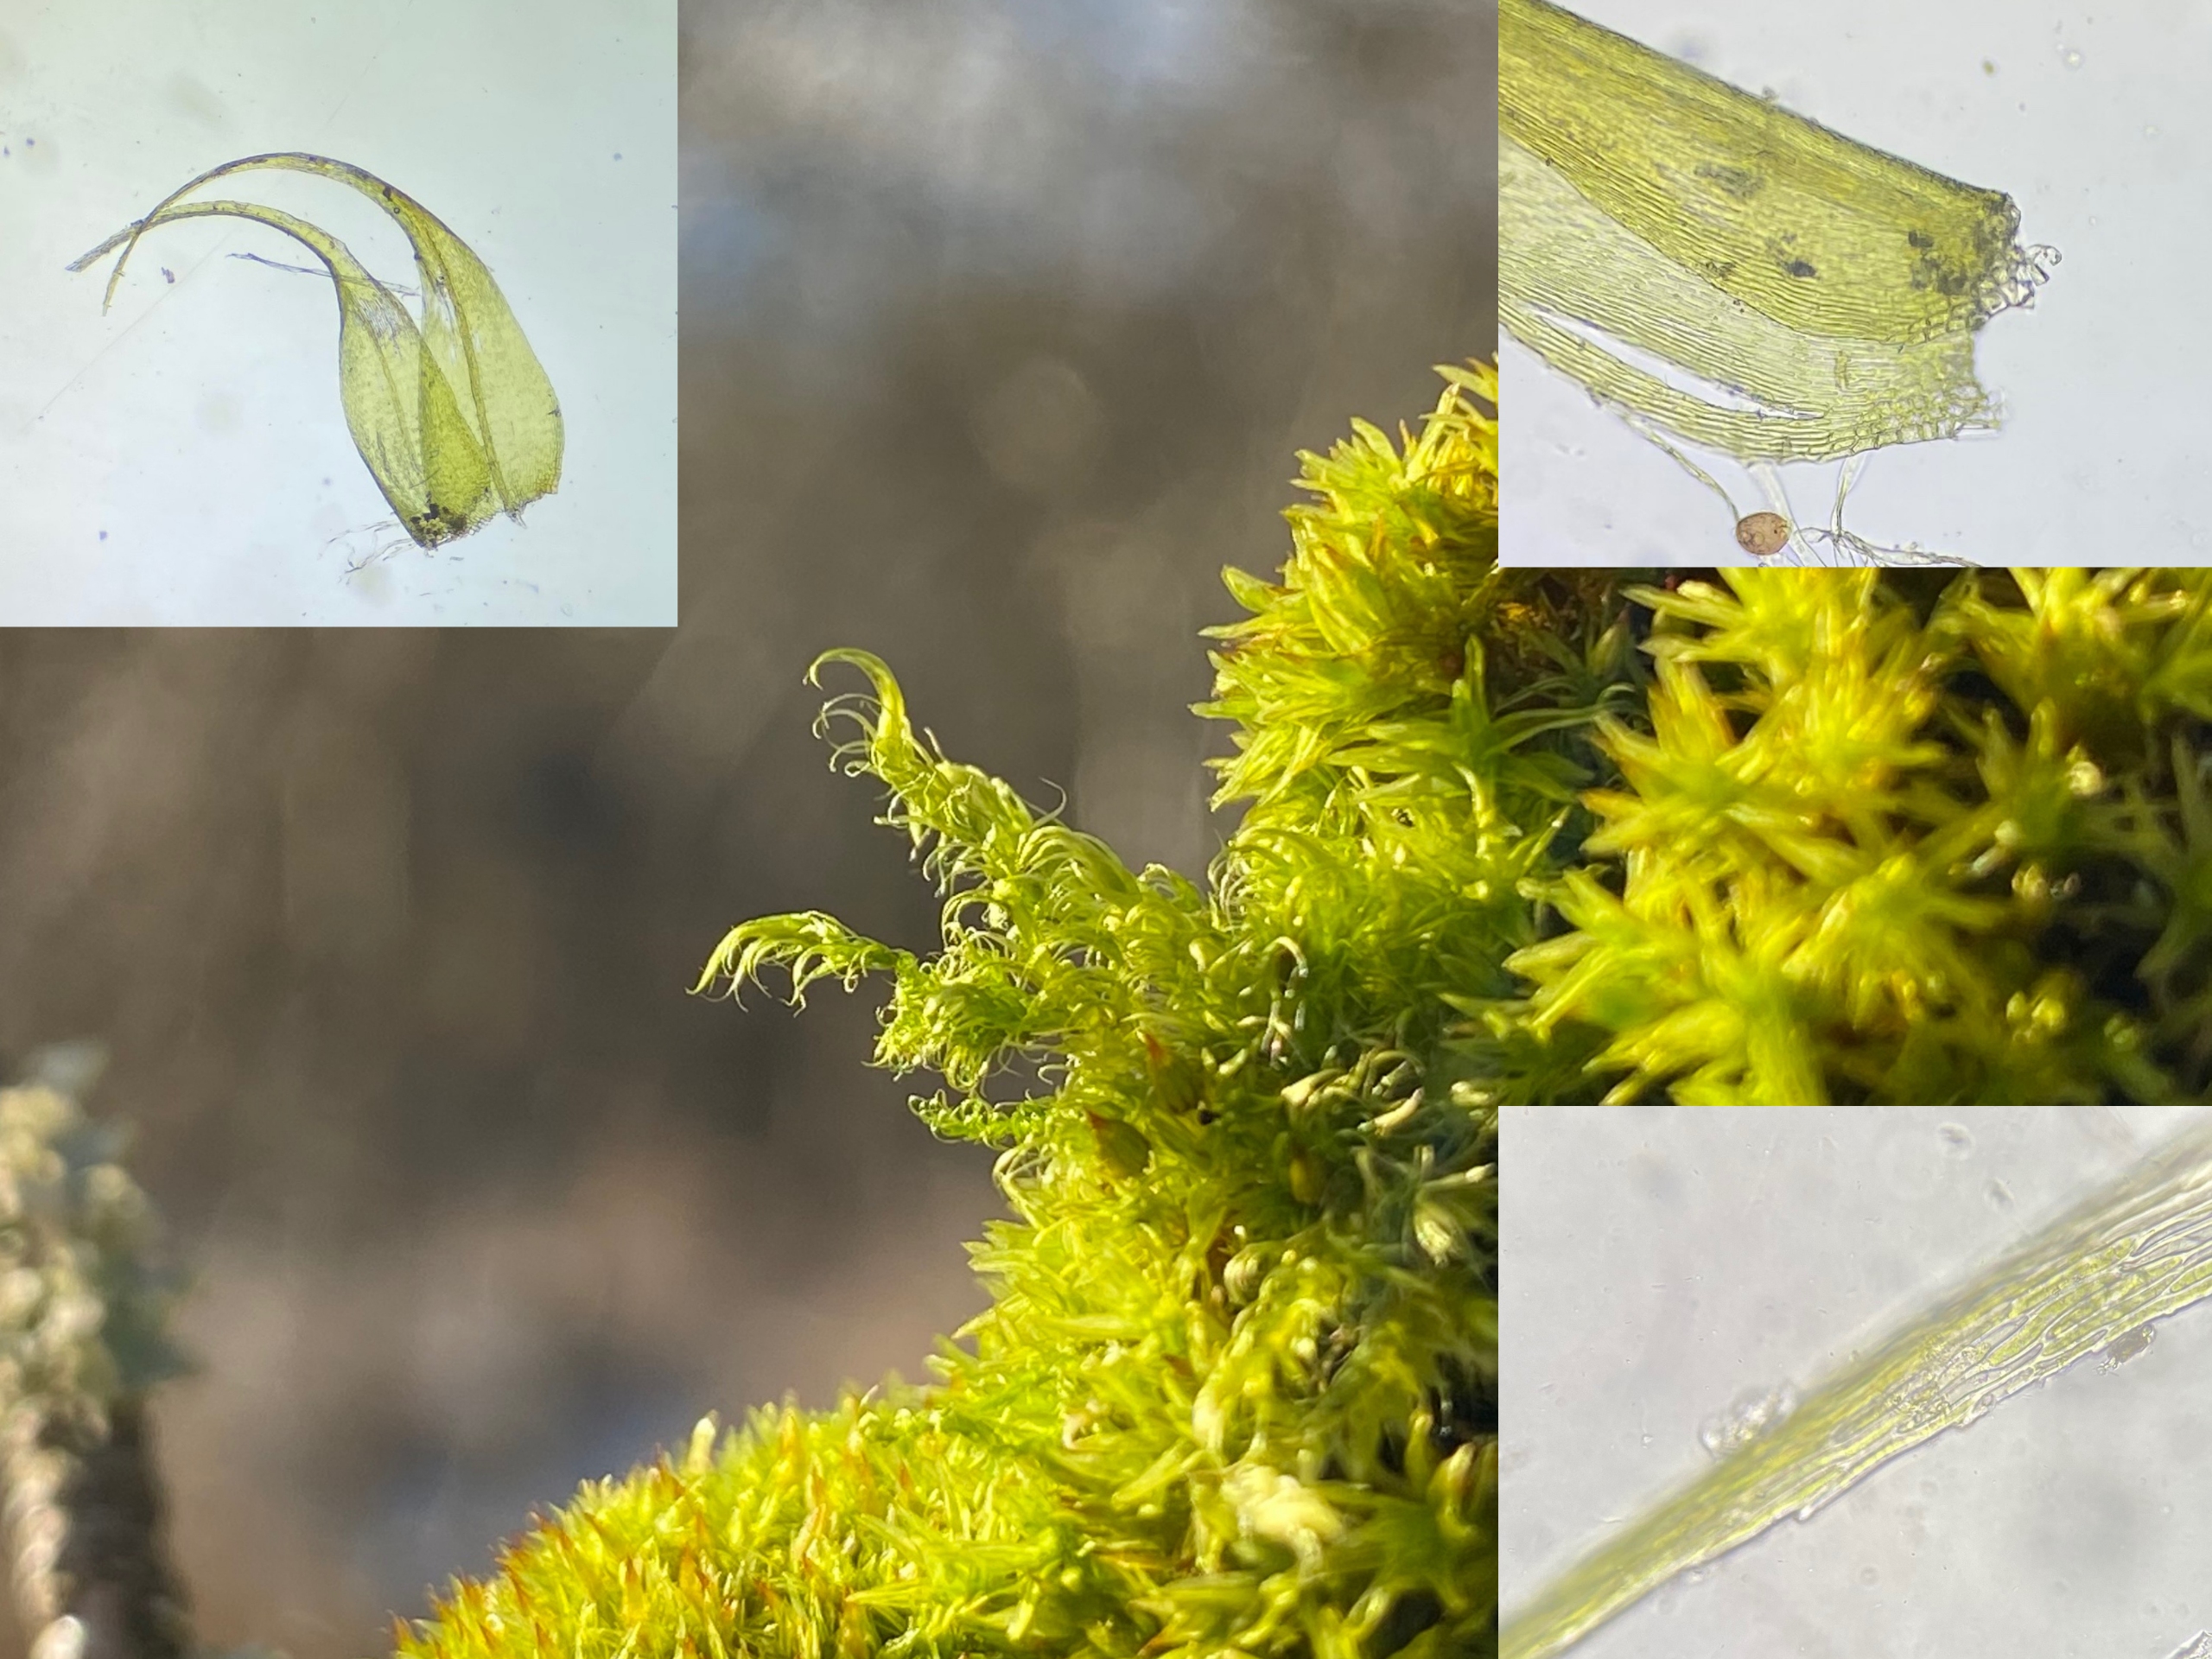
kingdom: Plantae
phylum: Bryophyta
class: Bryopsida
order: Hypnales
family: Scorpidiaceae
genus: Sanionia
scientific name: Sanionia uncinata
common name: Stribet krogblad
